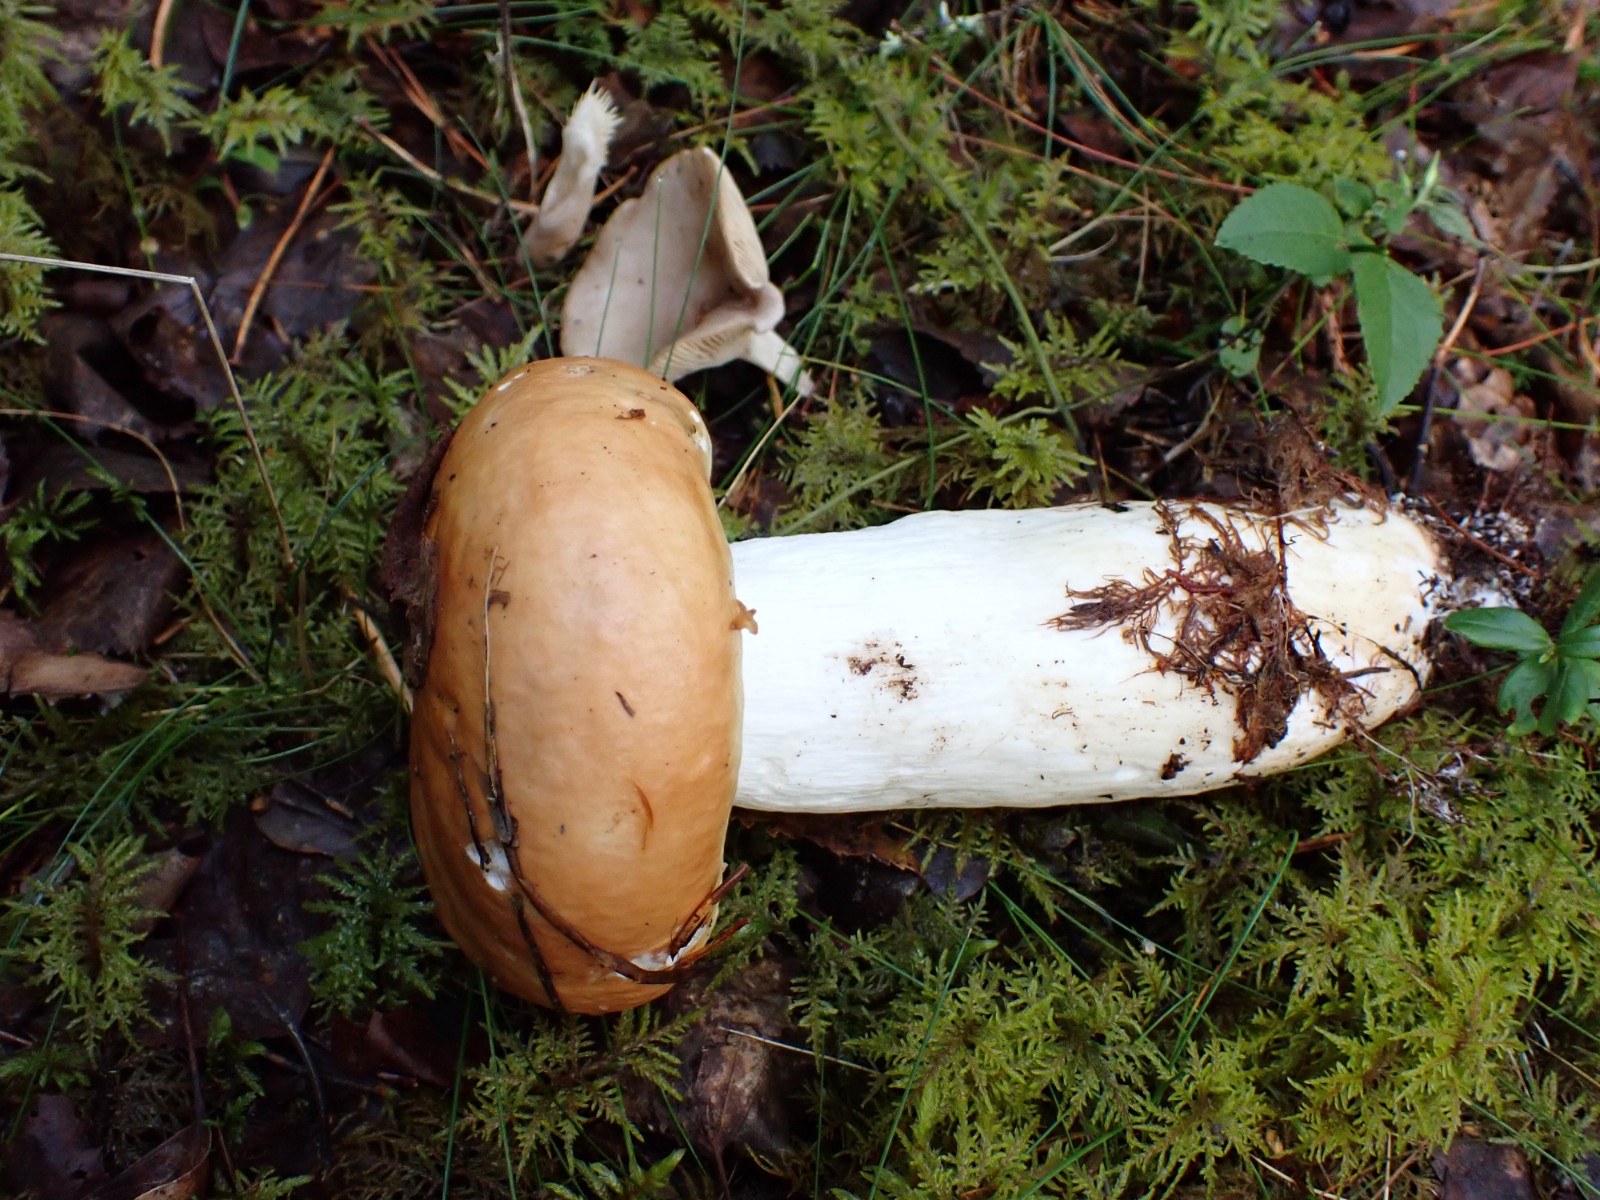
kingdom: Fungi
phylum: Basidiomycota
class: Agaricomycetes
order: Russulales
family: Russulaceae
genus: Russula
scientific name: Russula decolorans
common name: afblegende skørhat
